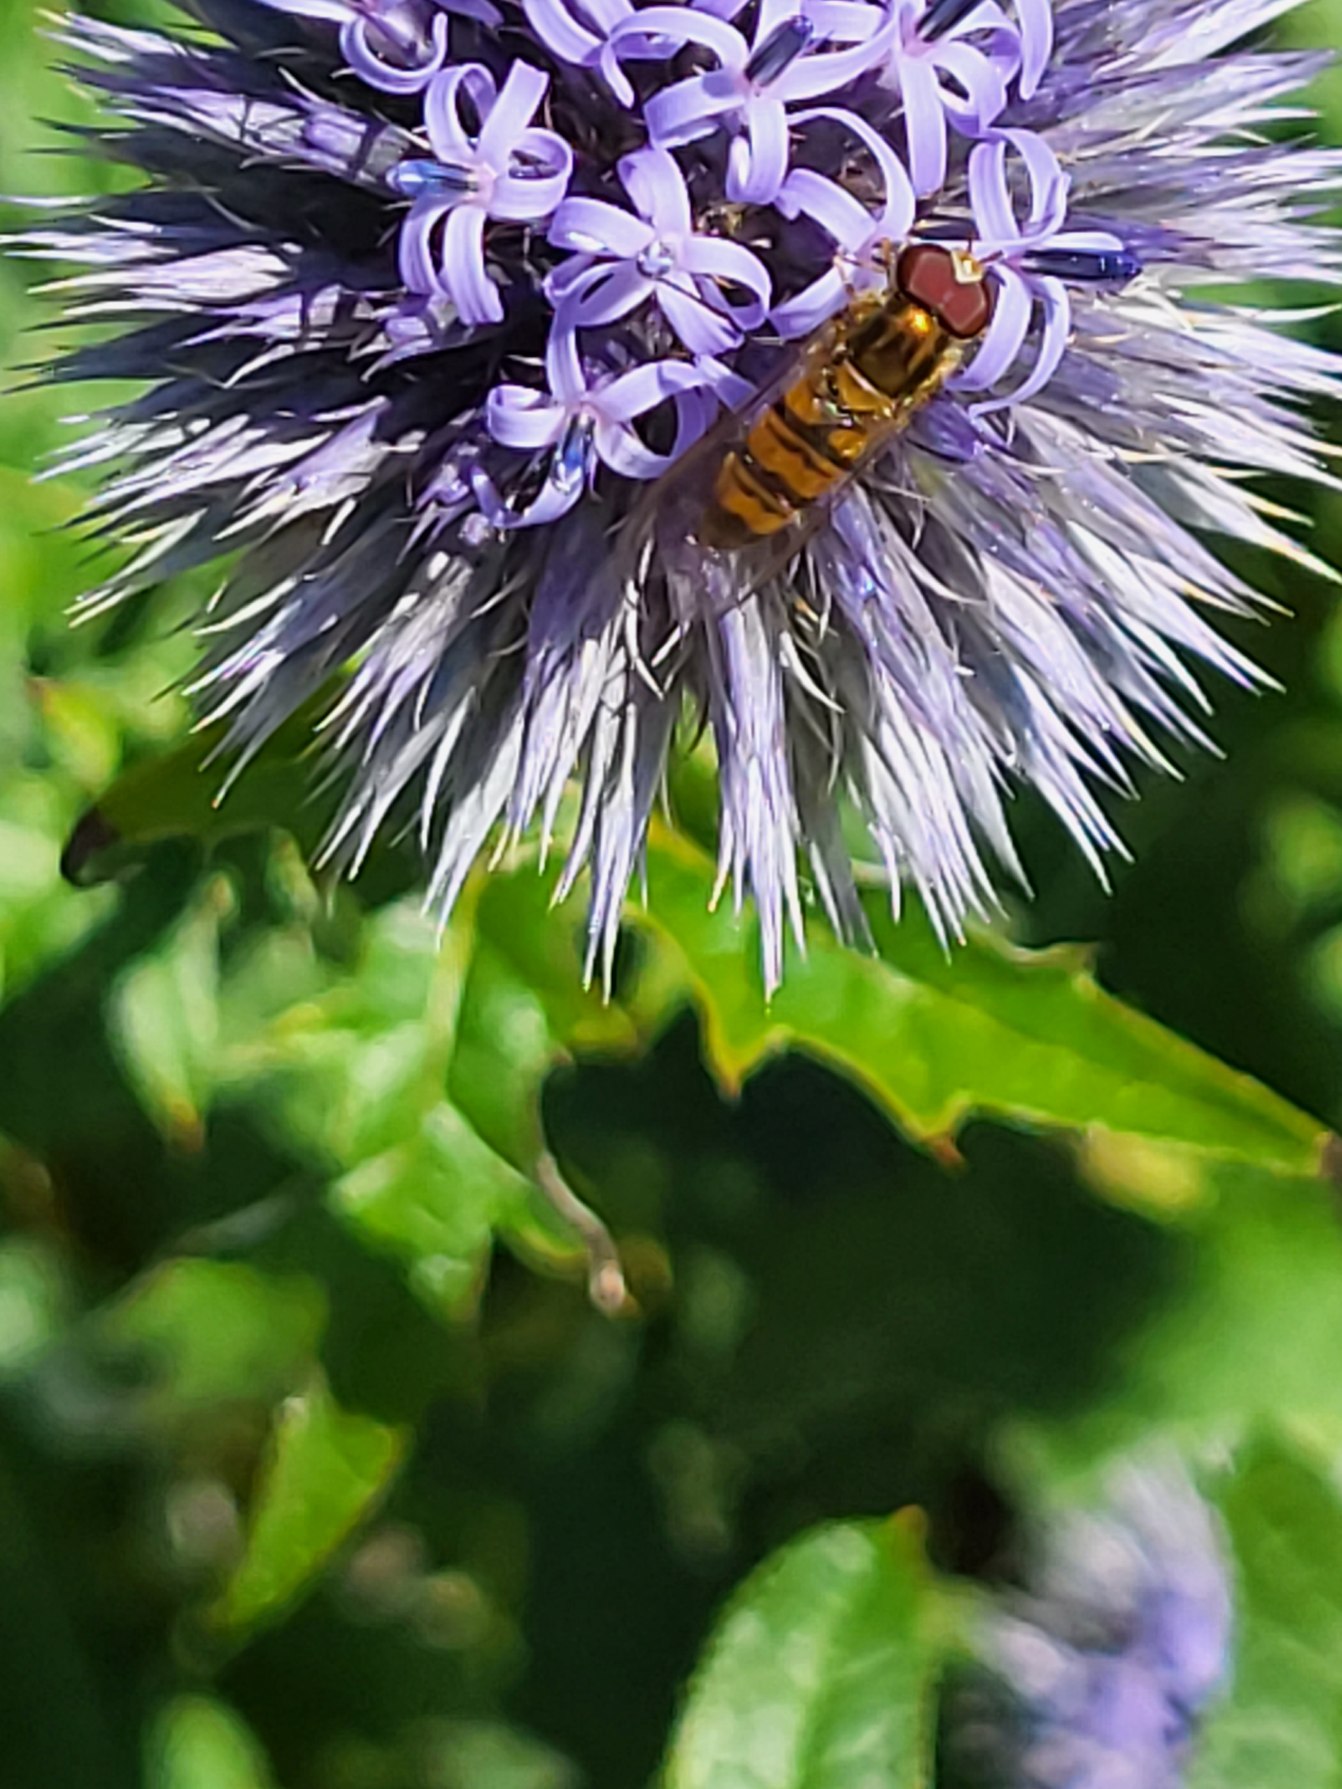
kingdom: Animalia
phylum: Arthropoda
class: Insecta
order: Diptera
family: Syrphidae
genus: Episyrphus
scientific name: Episyrphus balteatus
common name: Dobbeltbåndet svirreflue
